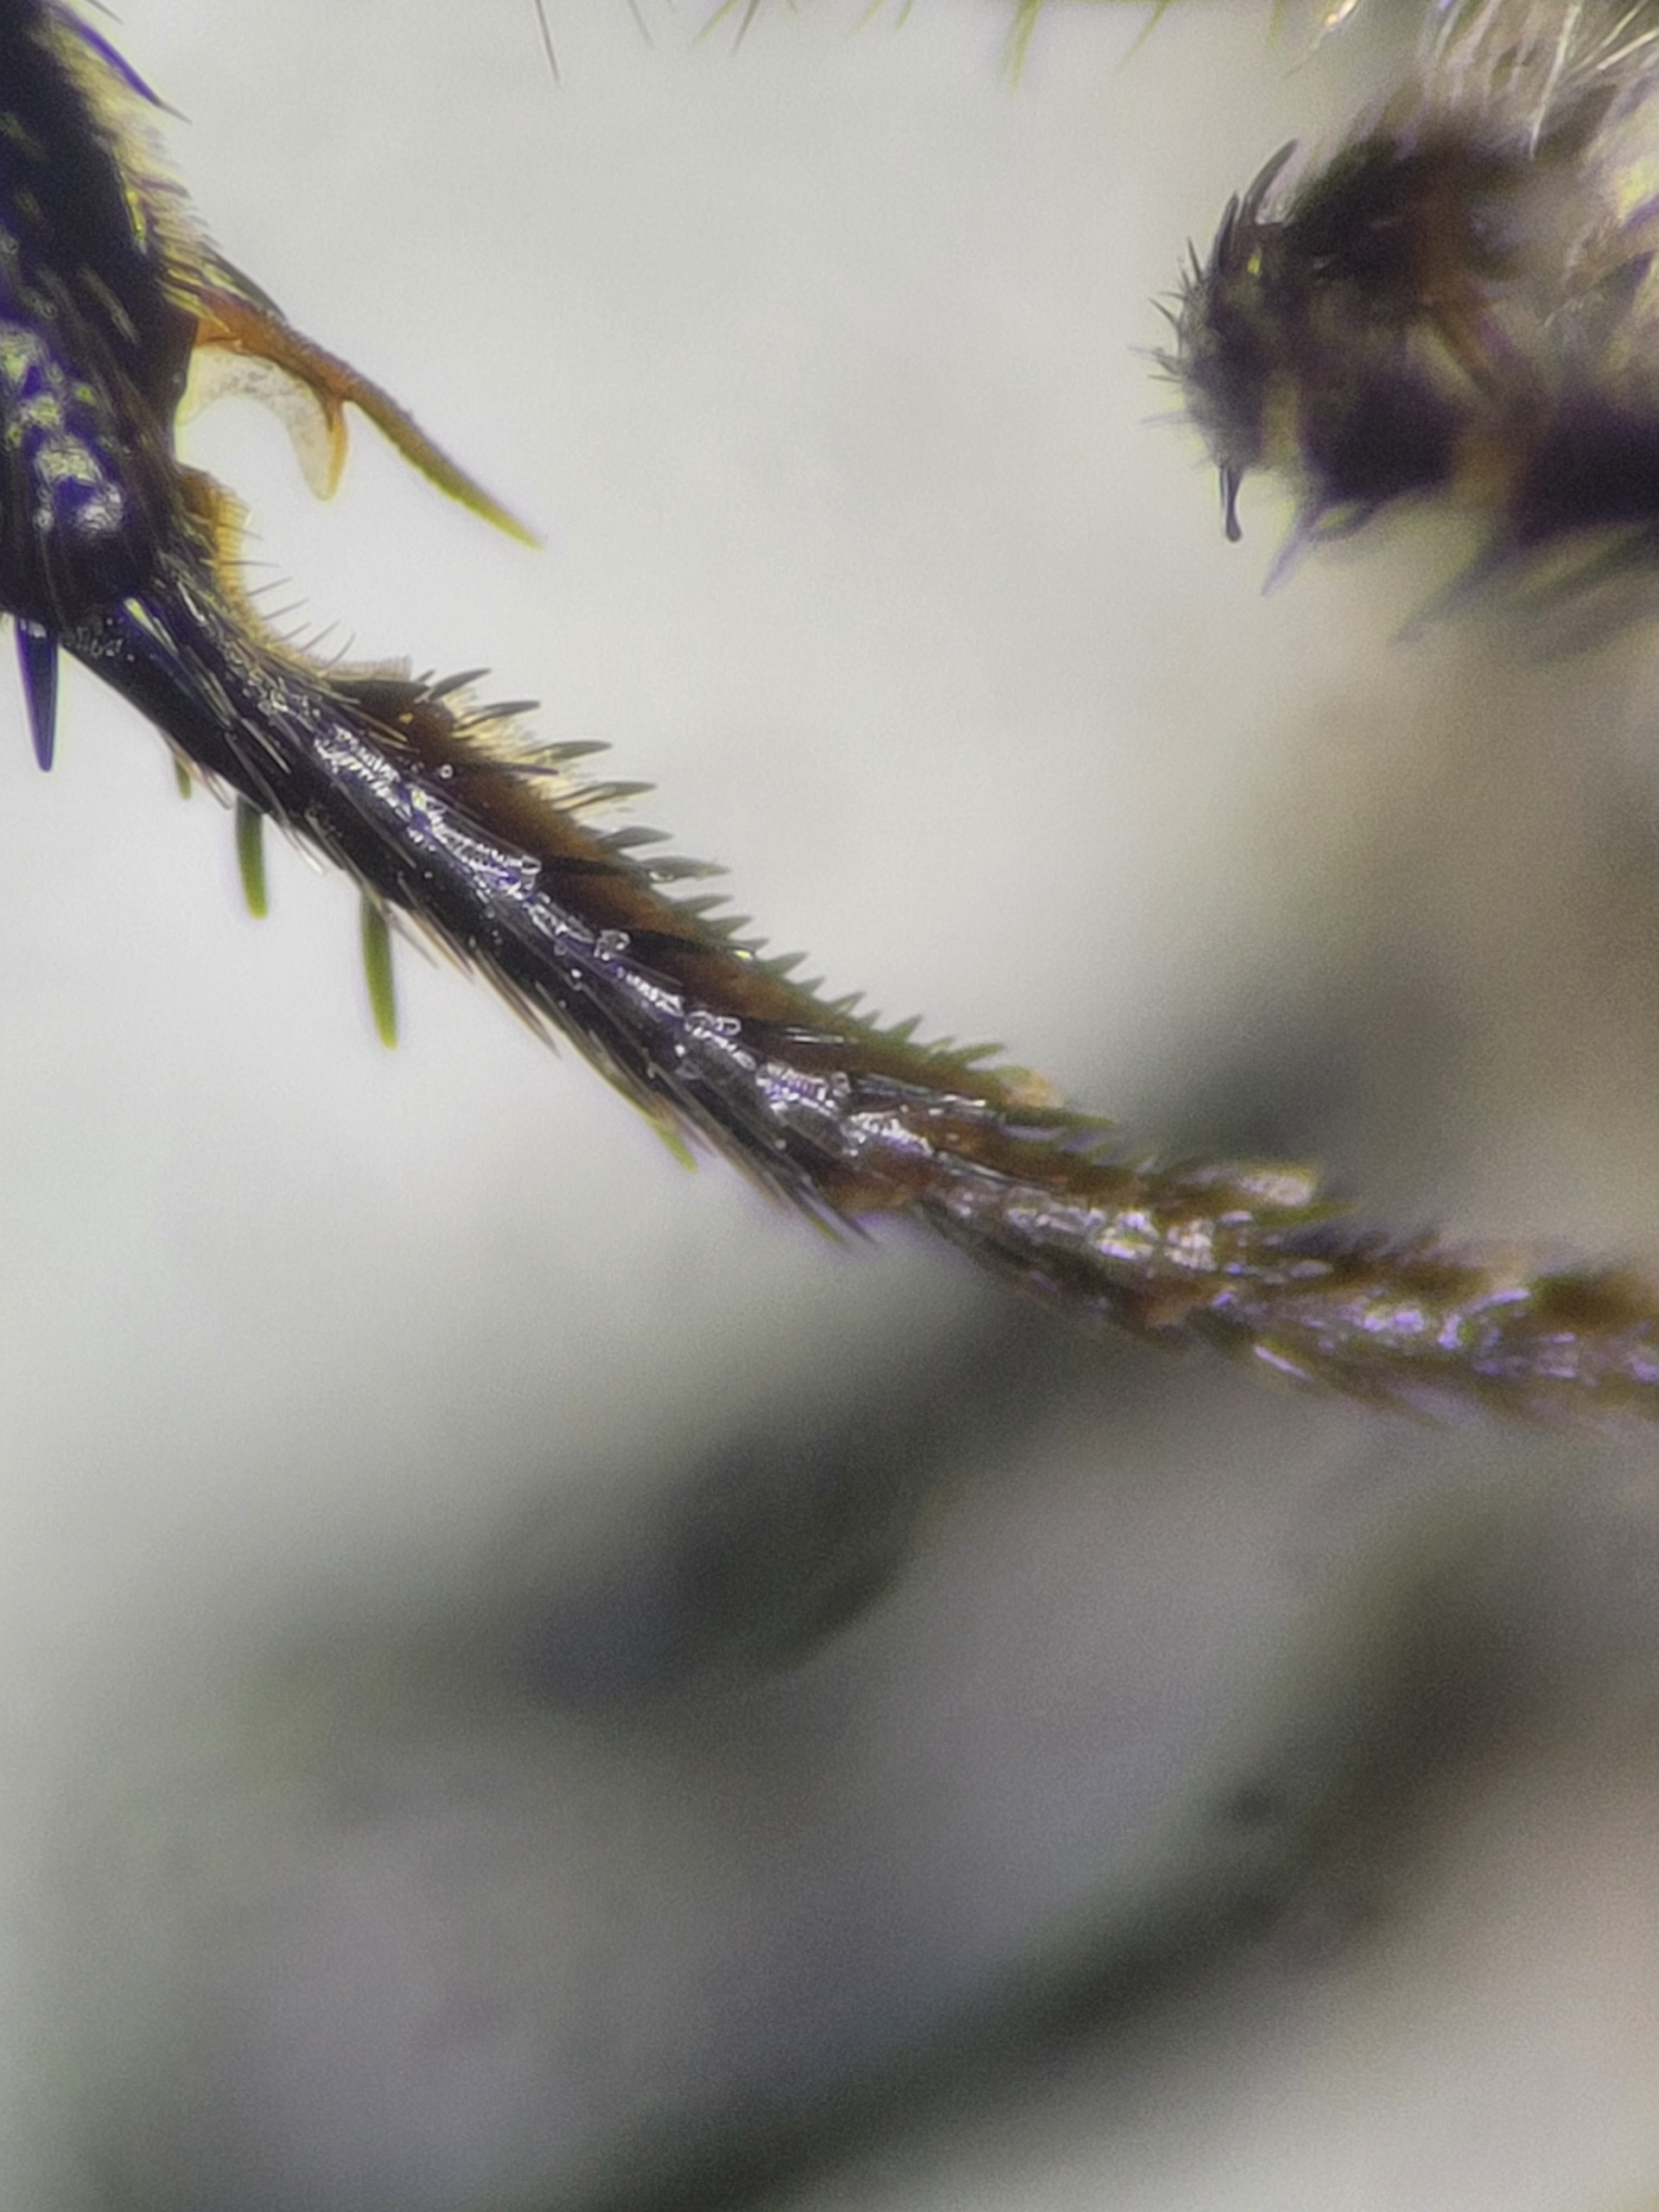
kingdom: Animalia
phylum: Arthropoda
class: Insecta
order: Hymenoptera
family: Crabronidae
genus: Astata
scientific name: Astata boops
